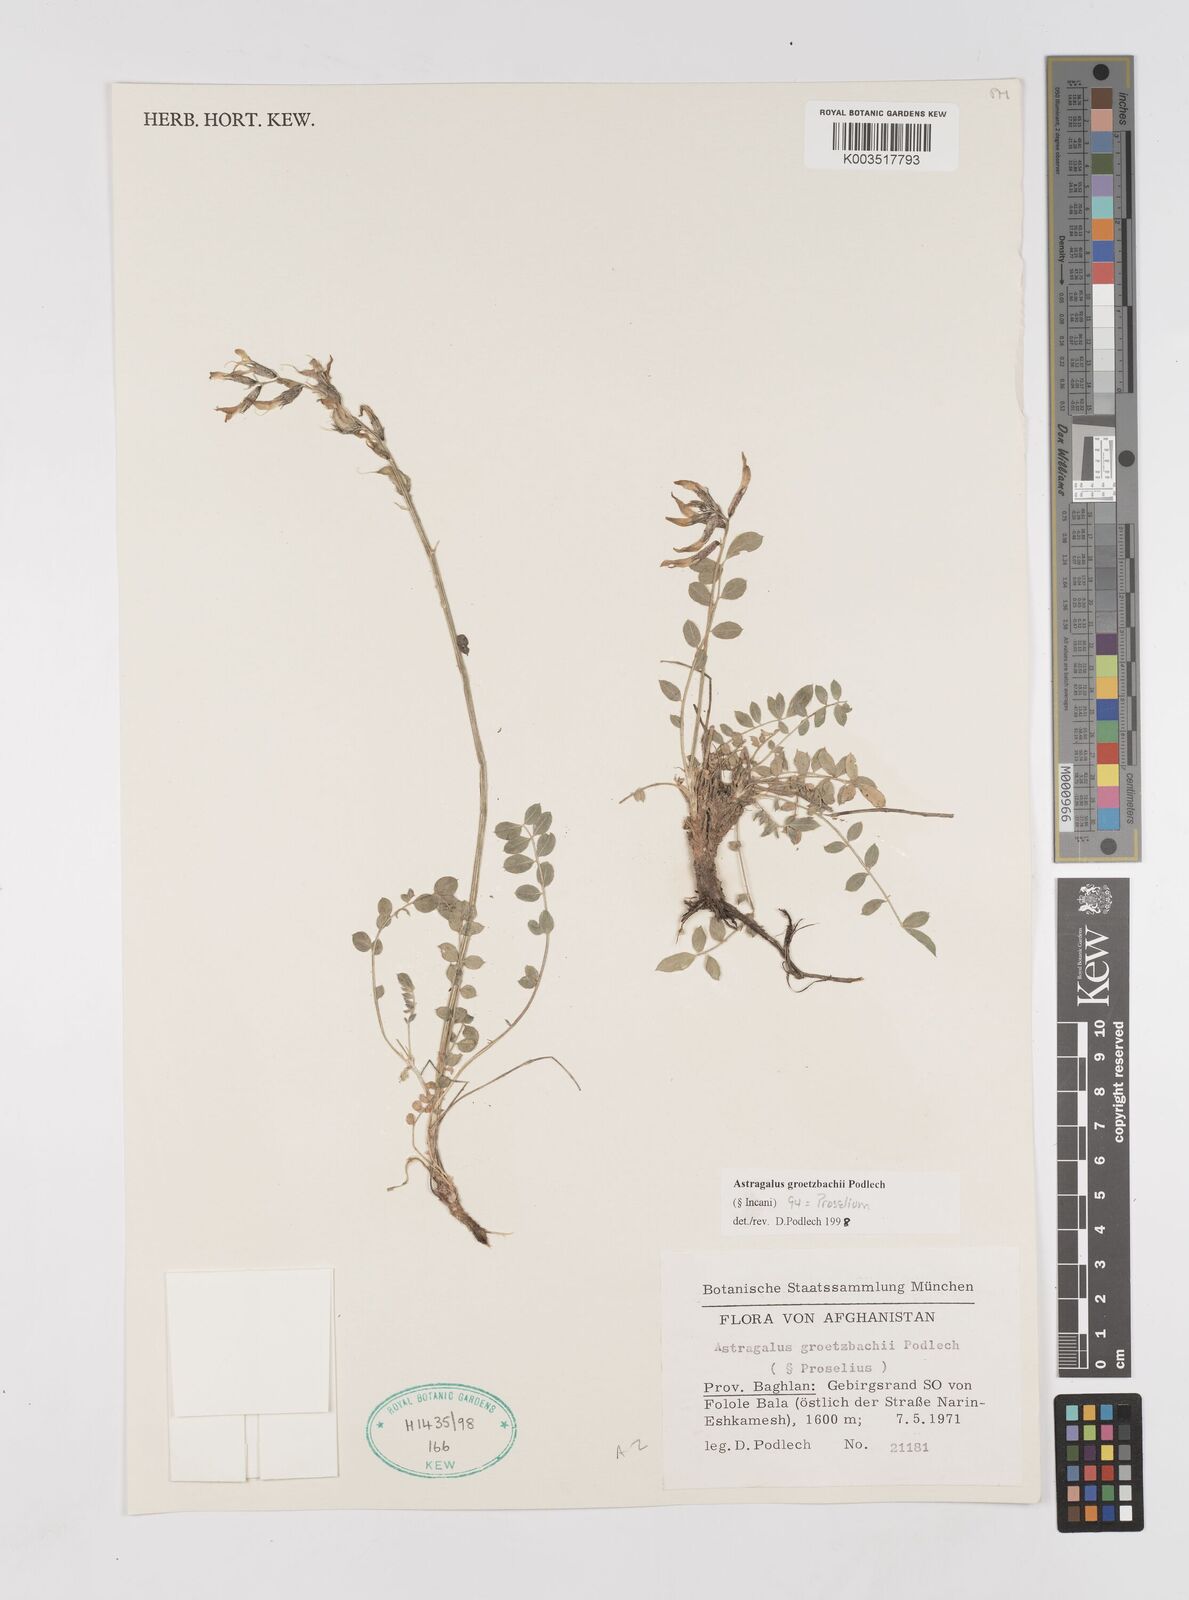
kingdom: Plantae
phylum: Tracheophyta
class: Magnoliopsida
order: Fabales
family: Fabaceae
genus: Astragalus
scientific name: Astragalus groetzbachii
